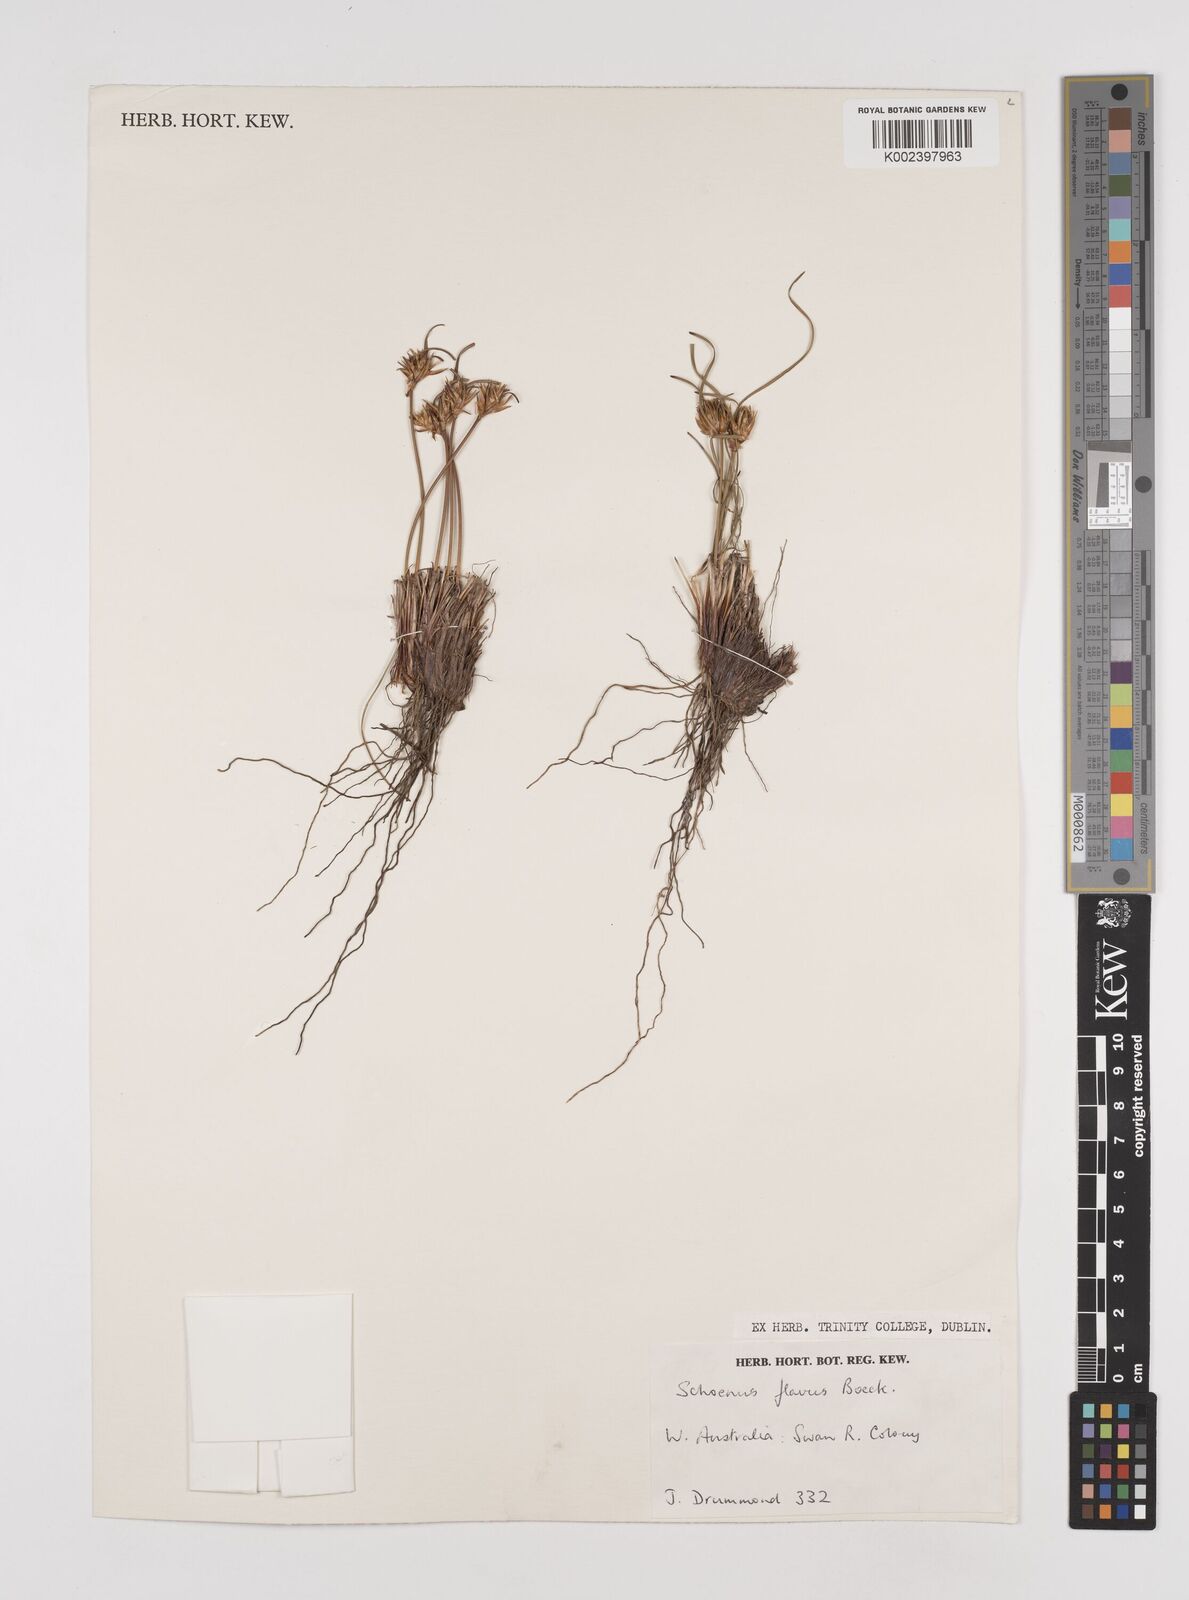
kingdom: Plantae
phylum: Tracheophyta
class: Liliopsida
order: Poales
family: Cyperaceae
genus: Schoenus
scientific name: Schoenus subflavus
